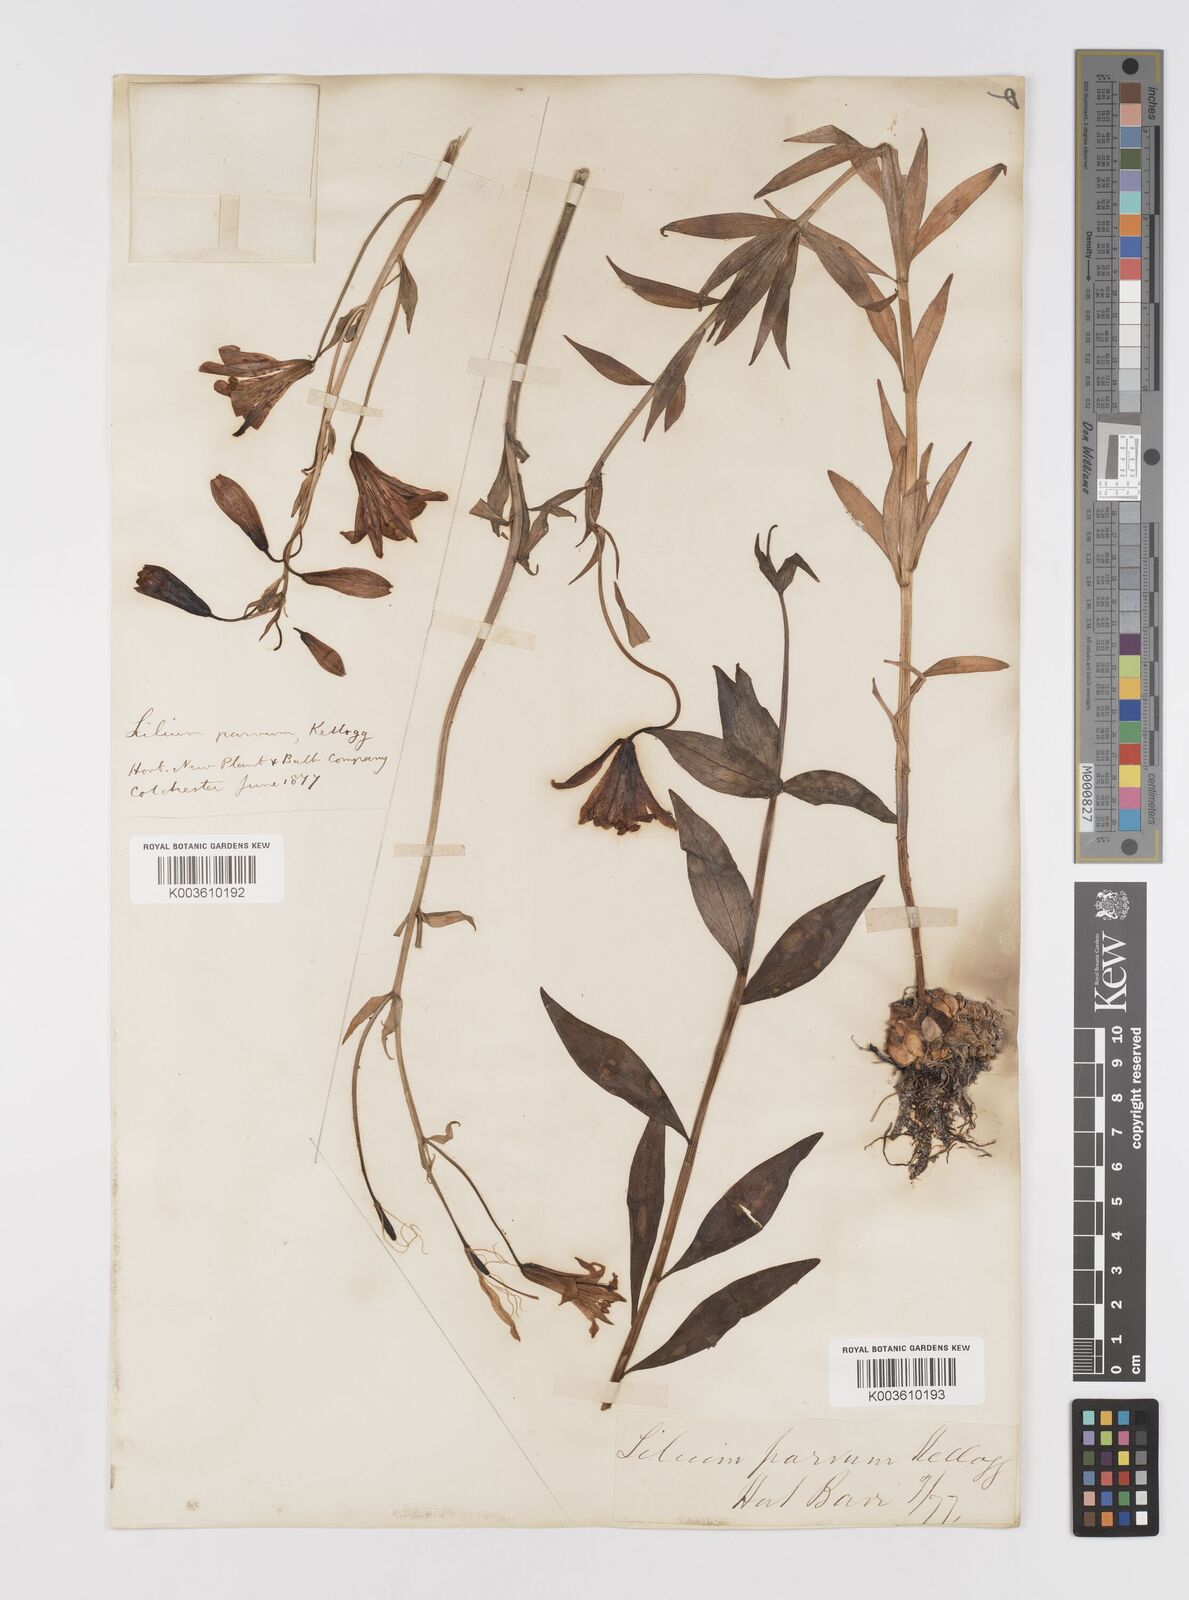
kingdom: Plantae
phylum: Tracheophyta
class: Liliopsida
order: Liliales
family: Liliaceae
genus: Lilium
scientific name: Lilium parvum
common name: Alpine lily
